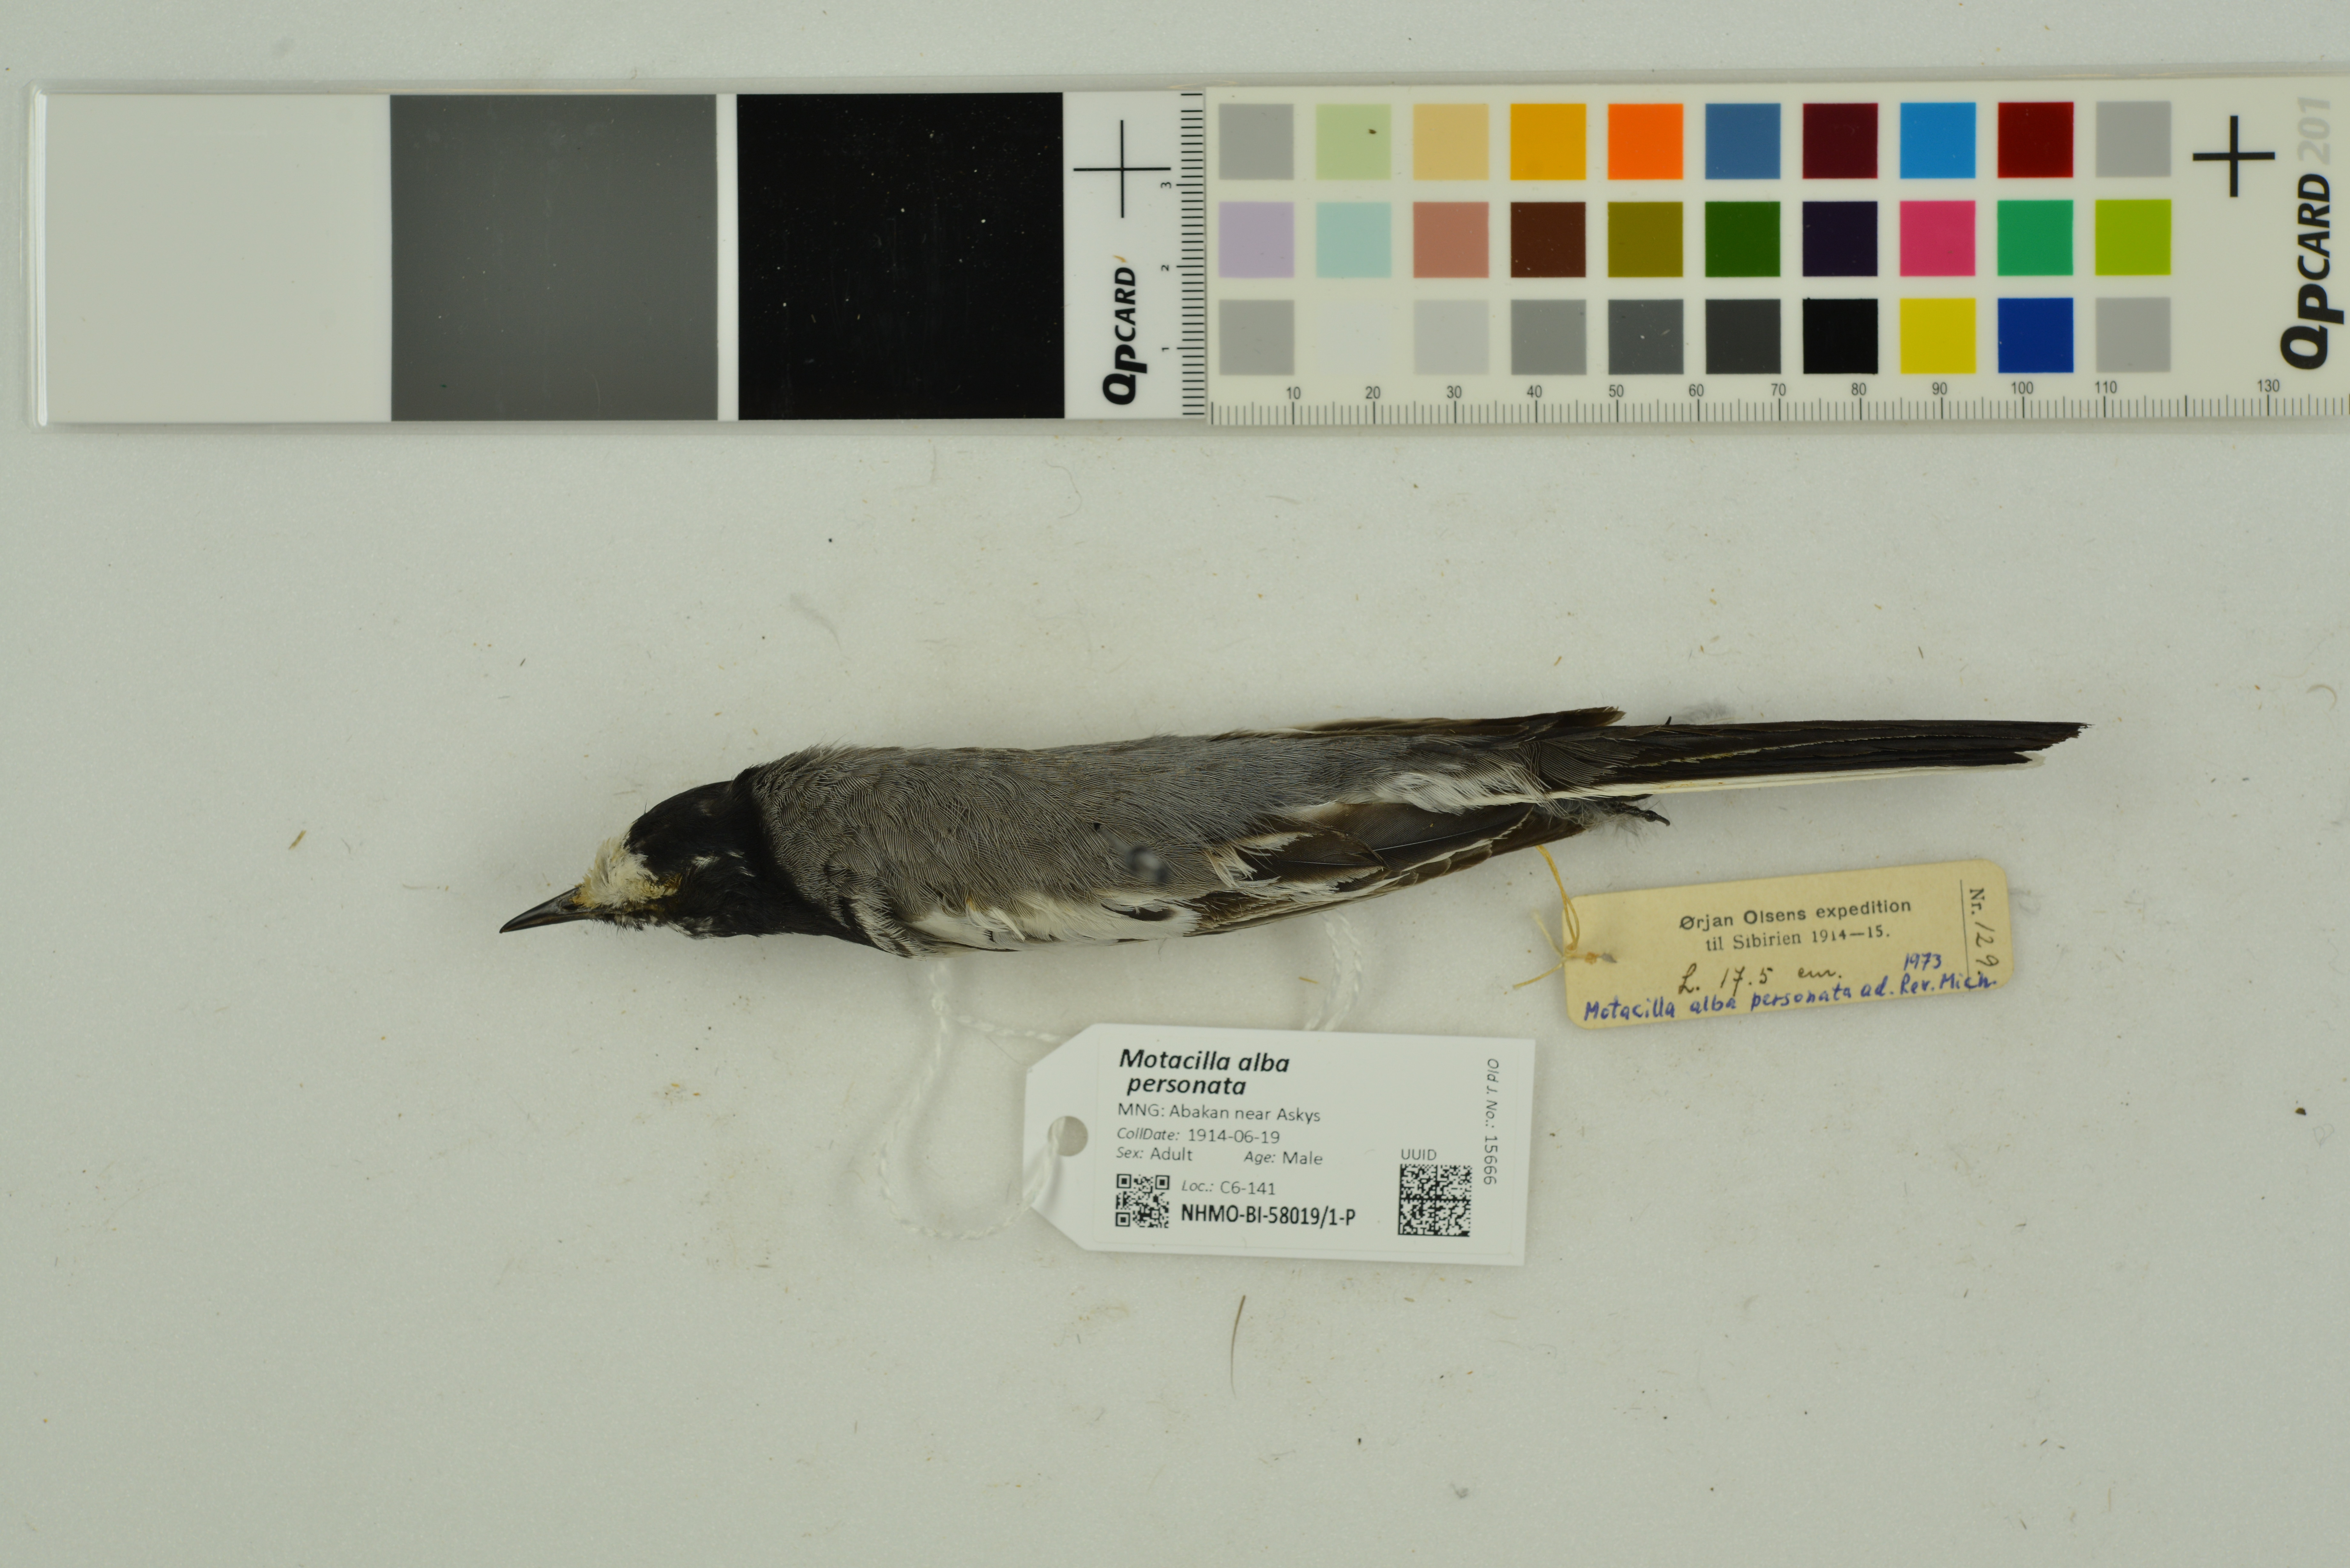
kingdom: Animalia
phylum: Chordata
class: Aves
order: Passeriformes
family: Motacillidae
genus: Motacilla
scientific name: Motacilla alba
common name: White wagtail
